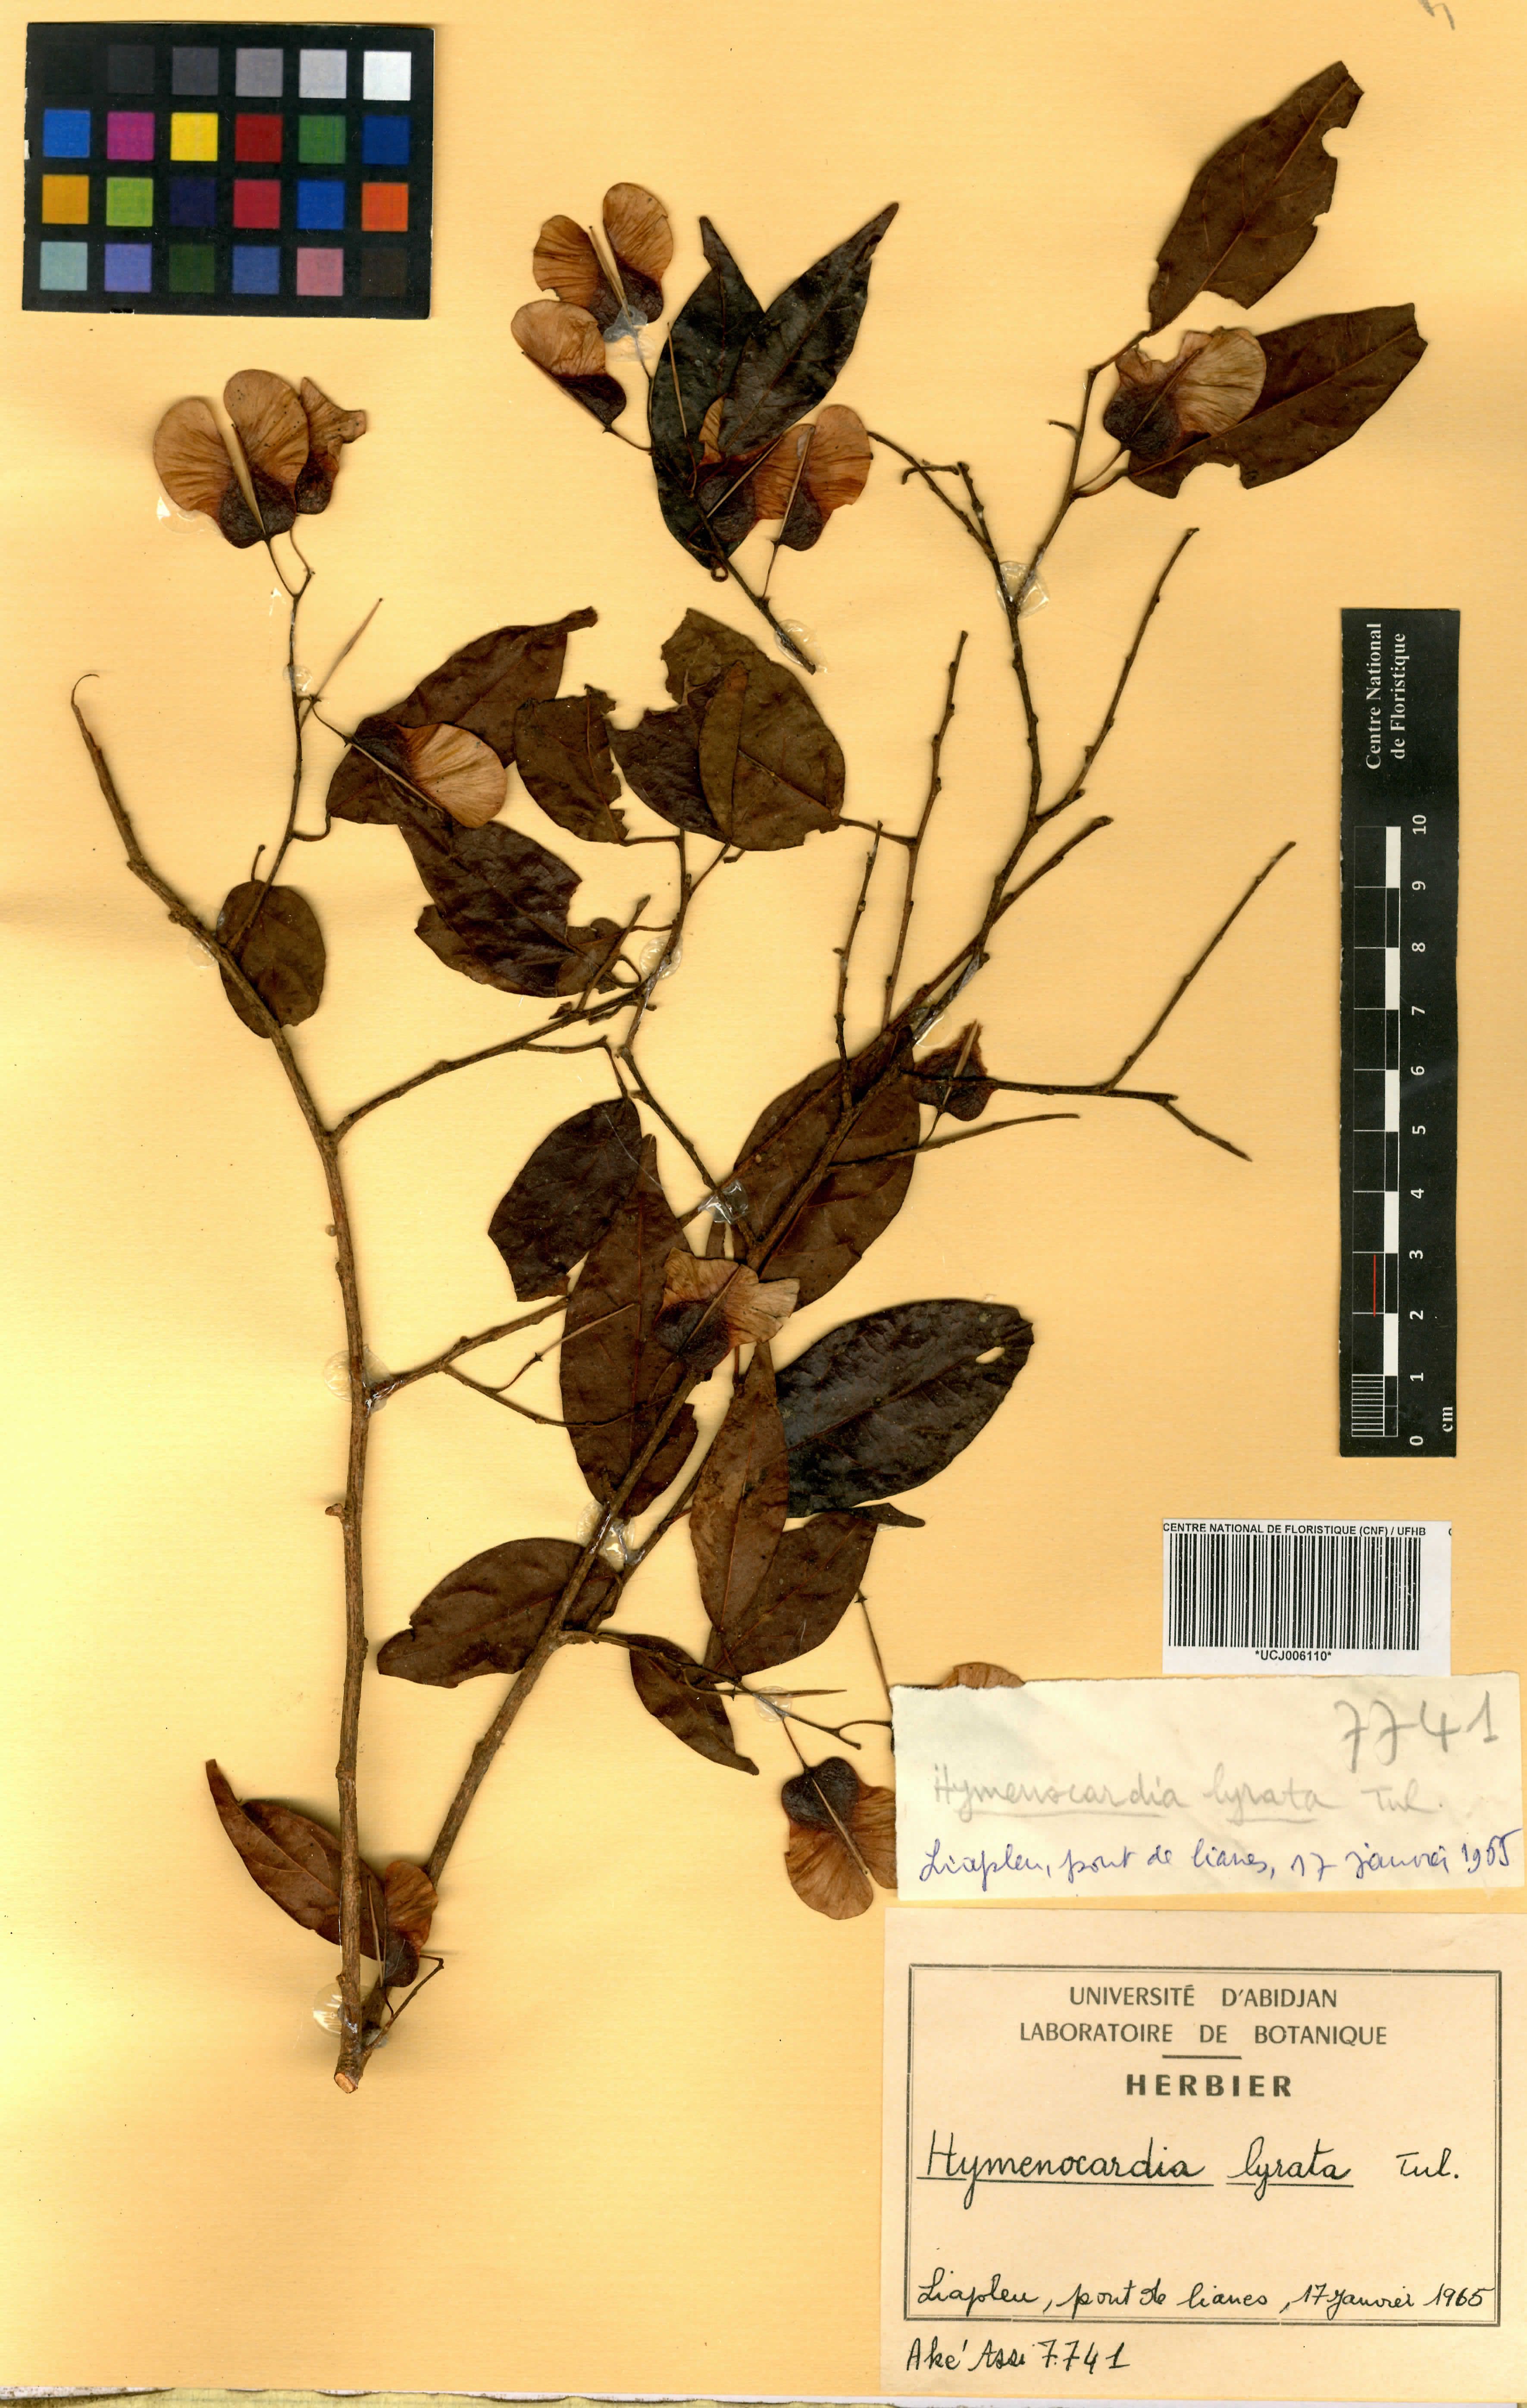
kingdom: Plantae
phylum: Tracheophyta
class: Magnoliopsida
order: Malpighiales
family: Phyllanthaceae
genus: Hymenocardia
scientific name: Hymenocardia lyrata
